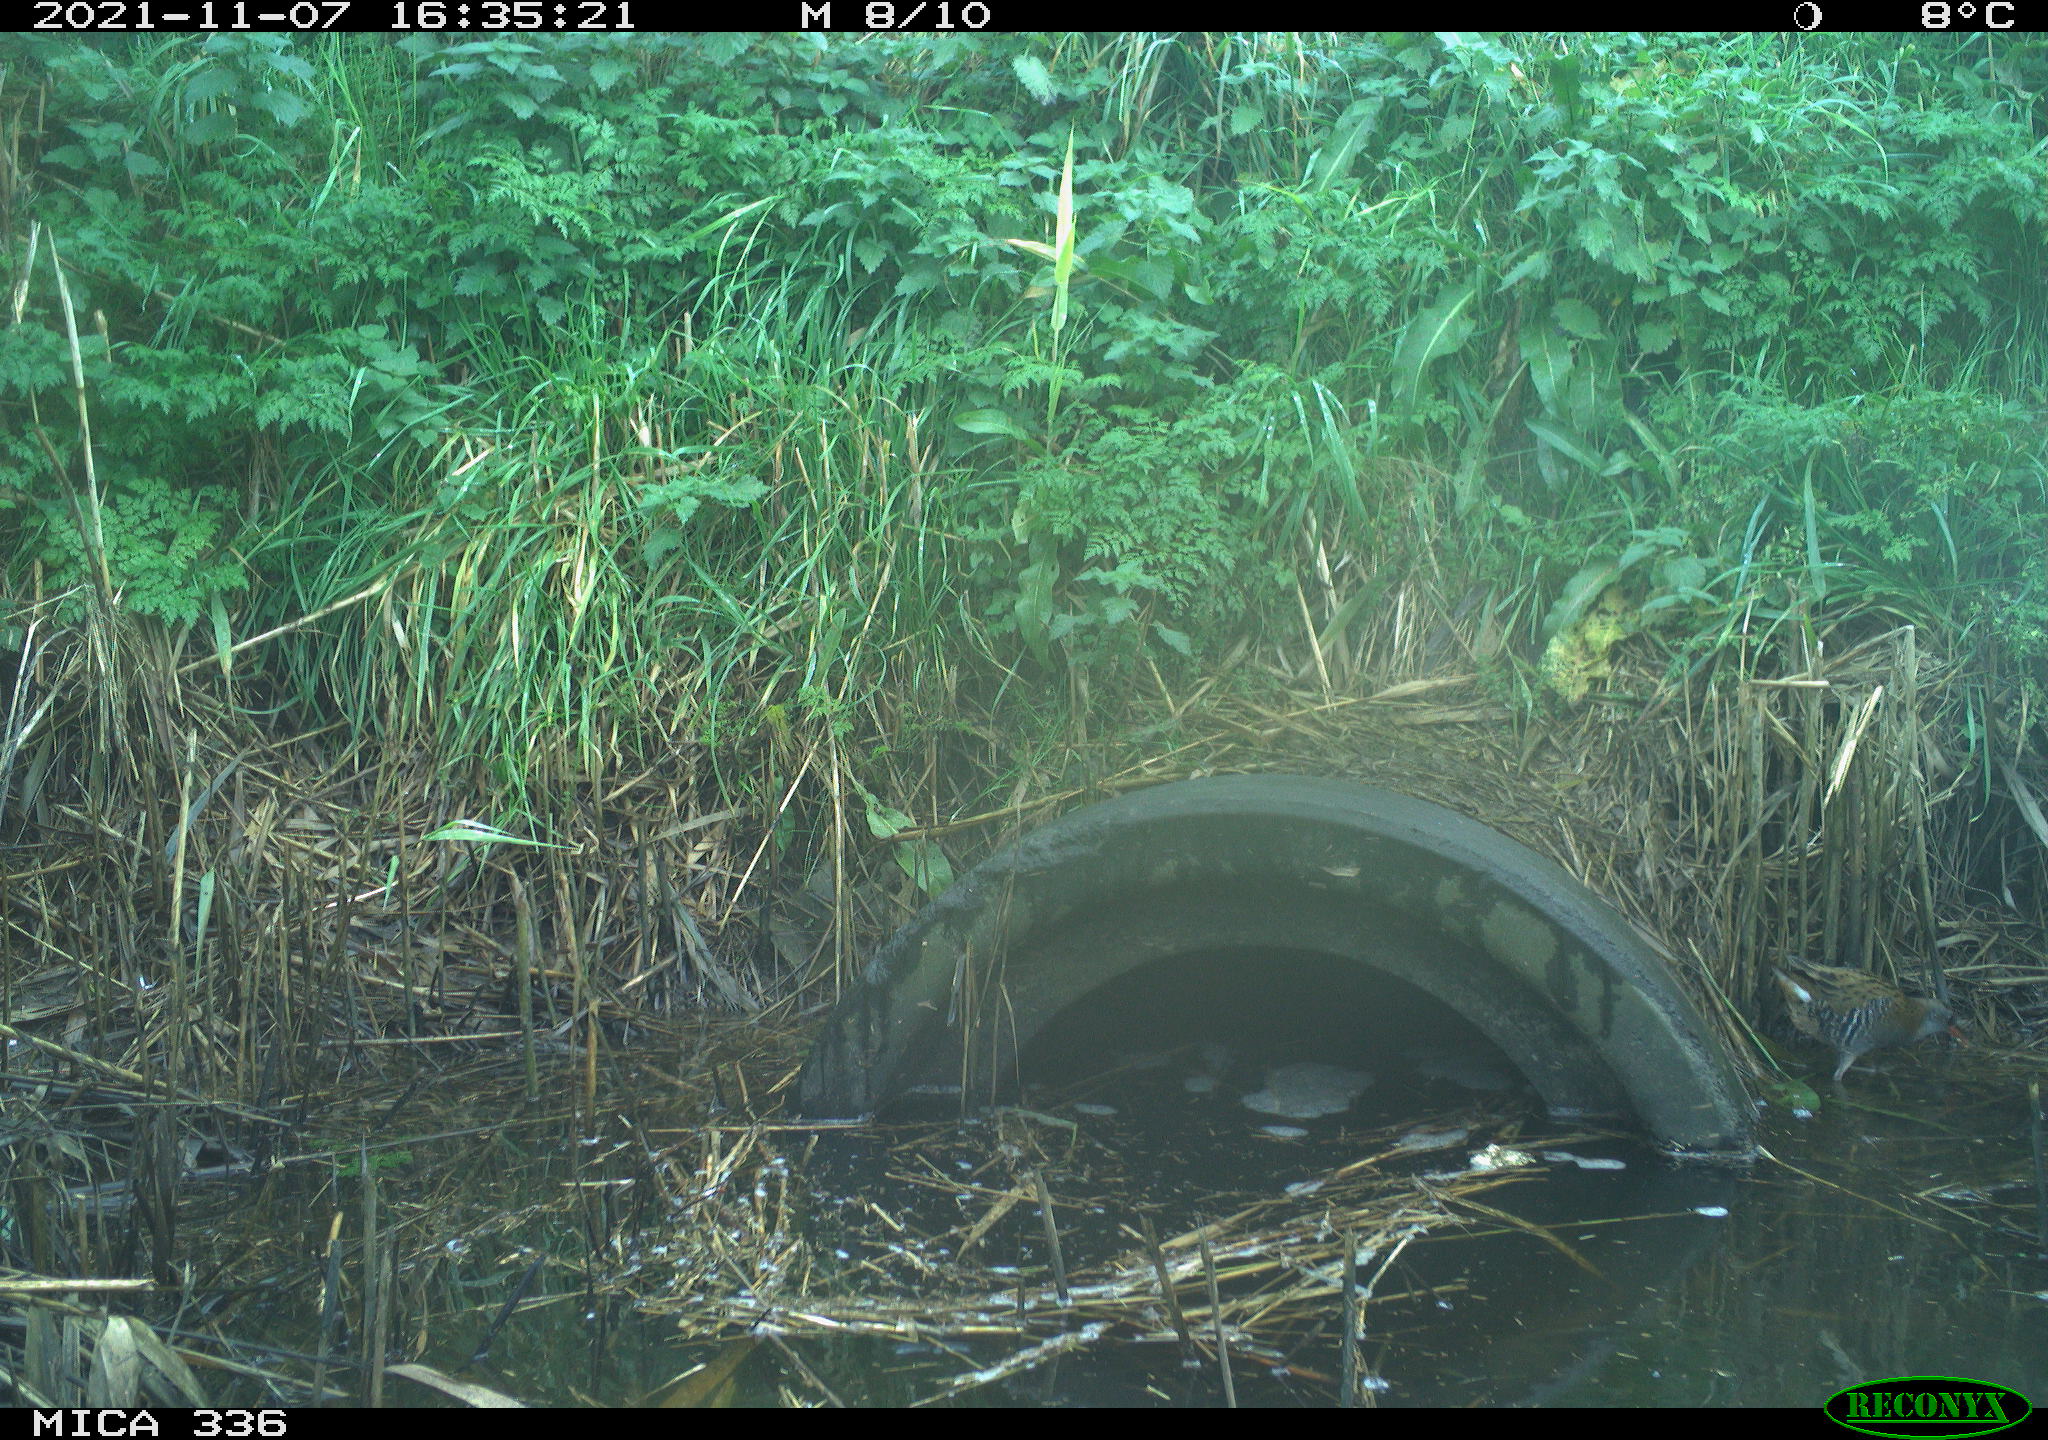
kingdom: Animalia
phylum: Chordata
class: Aves
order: Gruiformes
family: Rallidae
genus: Gallinula
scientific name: Gallinula chloropus
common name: Common moorhen
